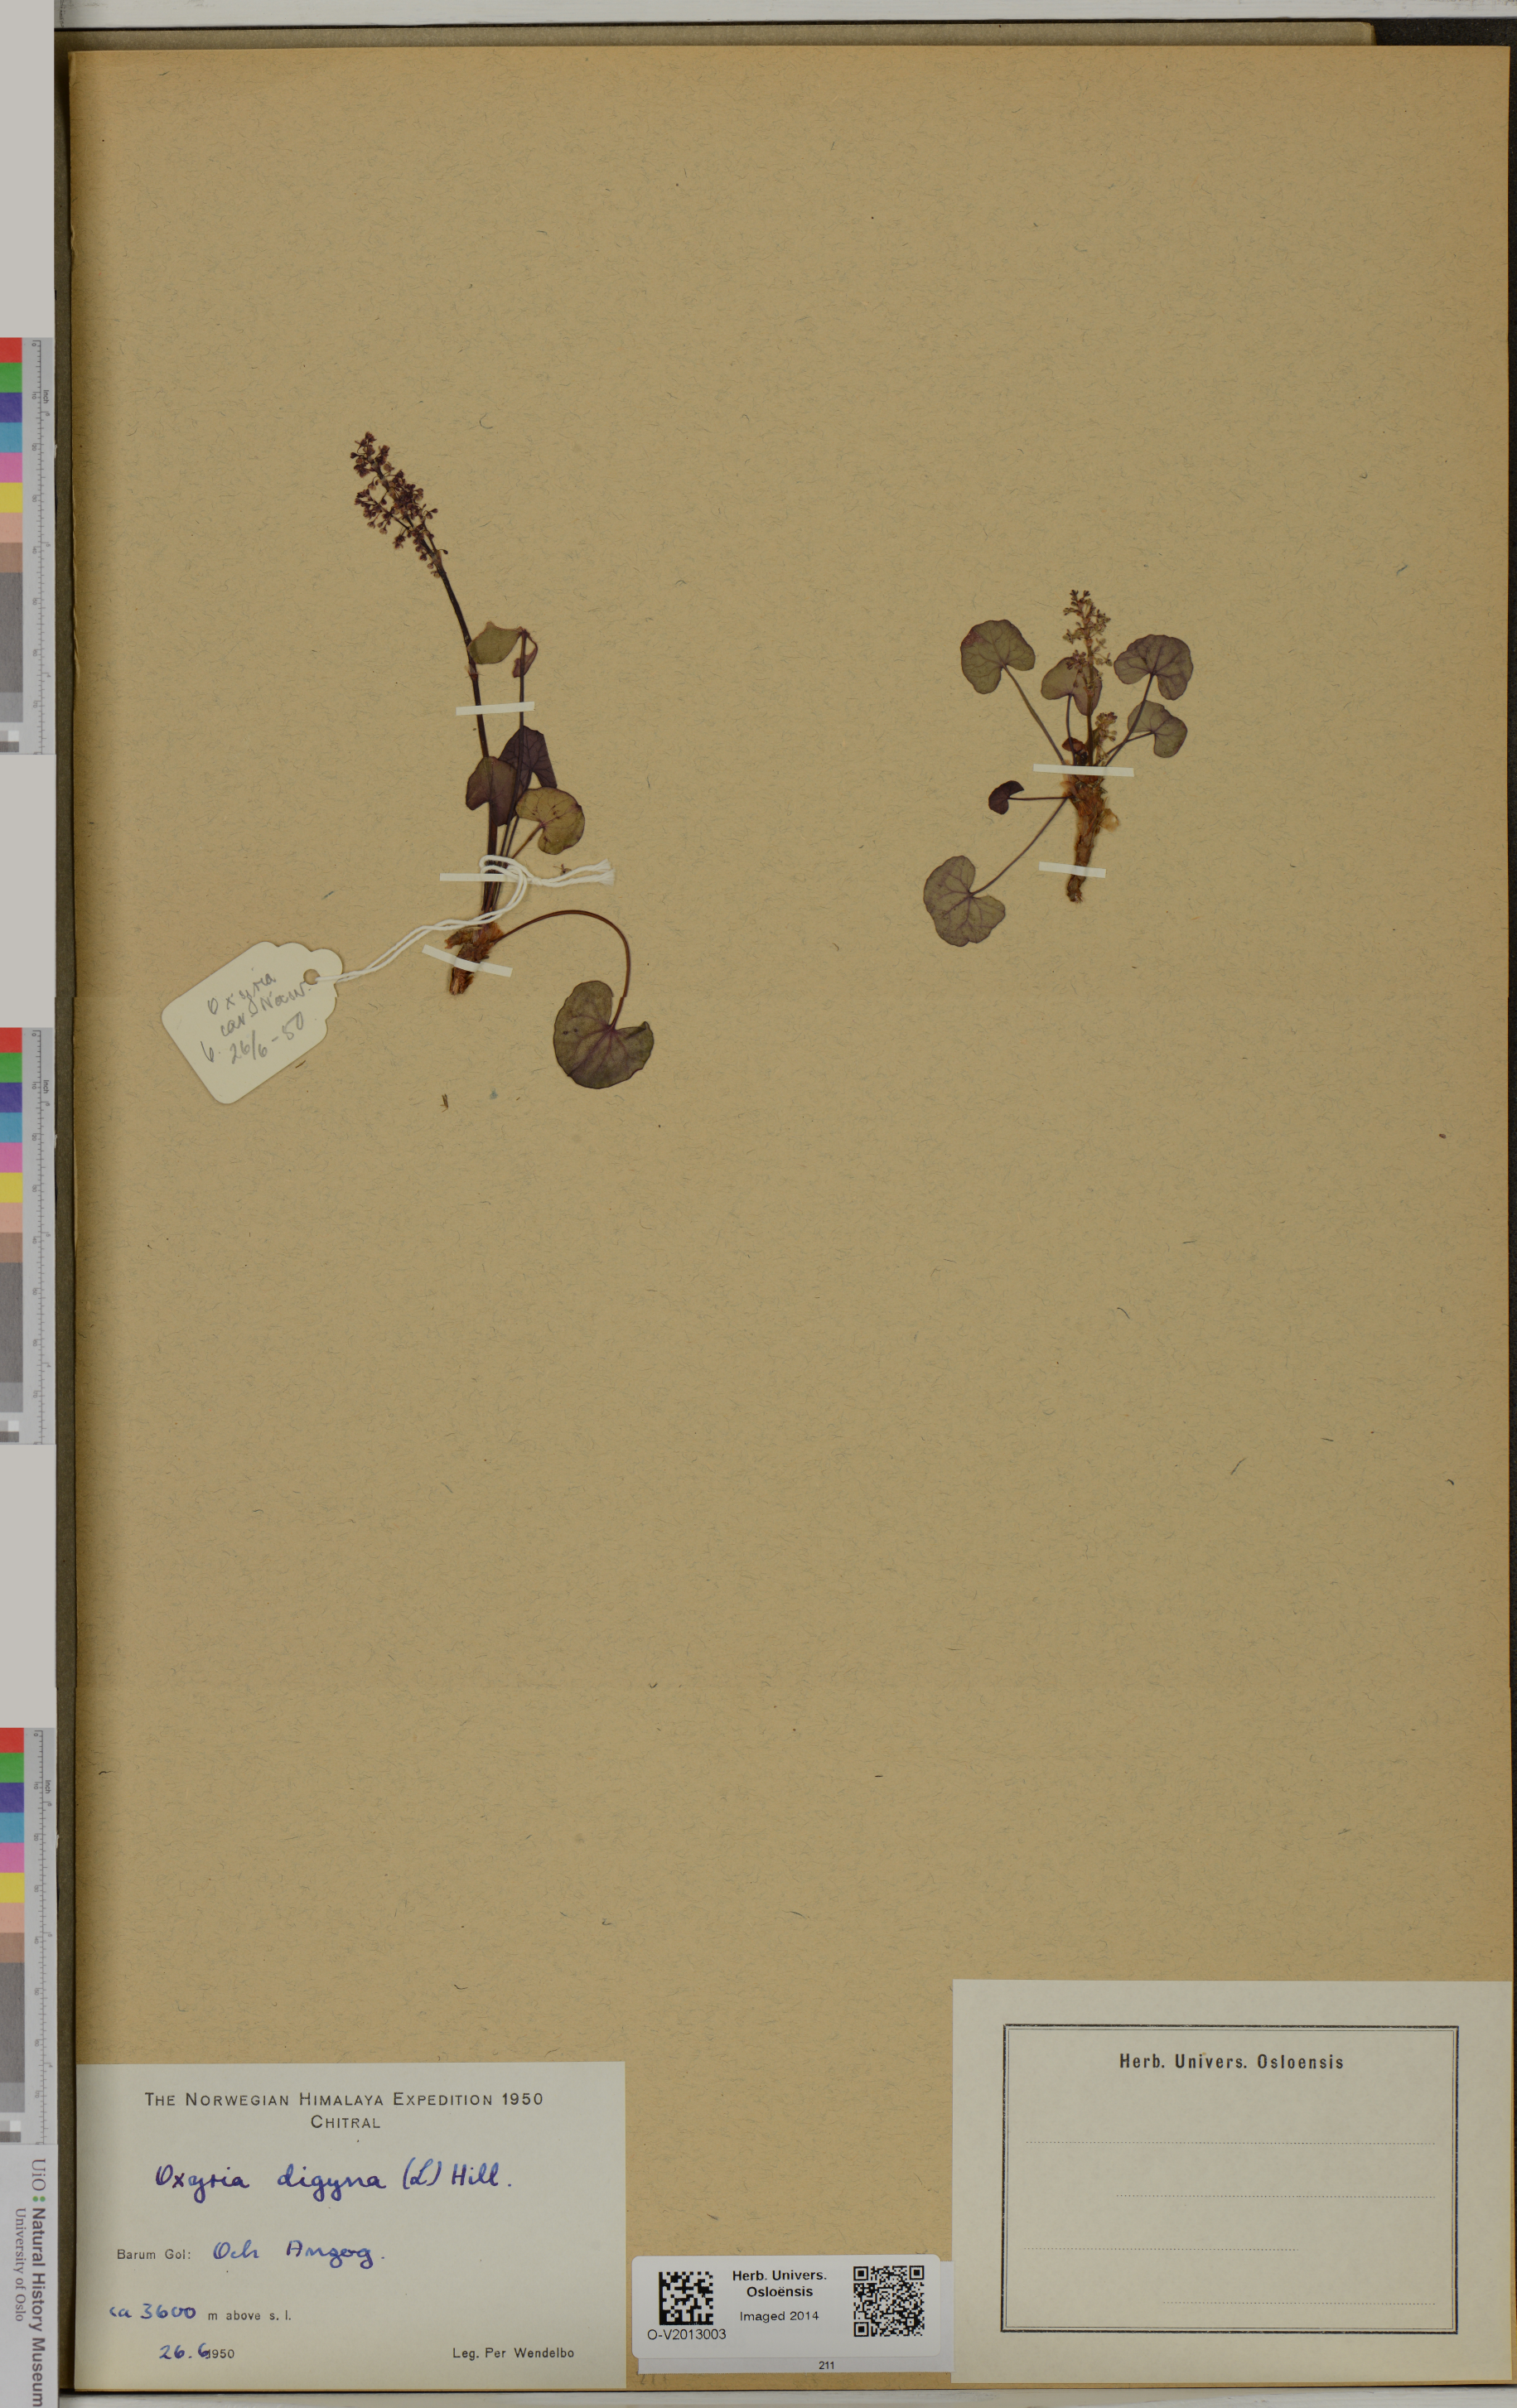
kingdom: Plantae
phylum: Tracheophyta
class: Magnoliopsida
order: Caryophyllales
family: Polygonaceae
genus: Oxyria
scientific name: Oxyria digyna
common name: Alpine mountain-sorrel
